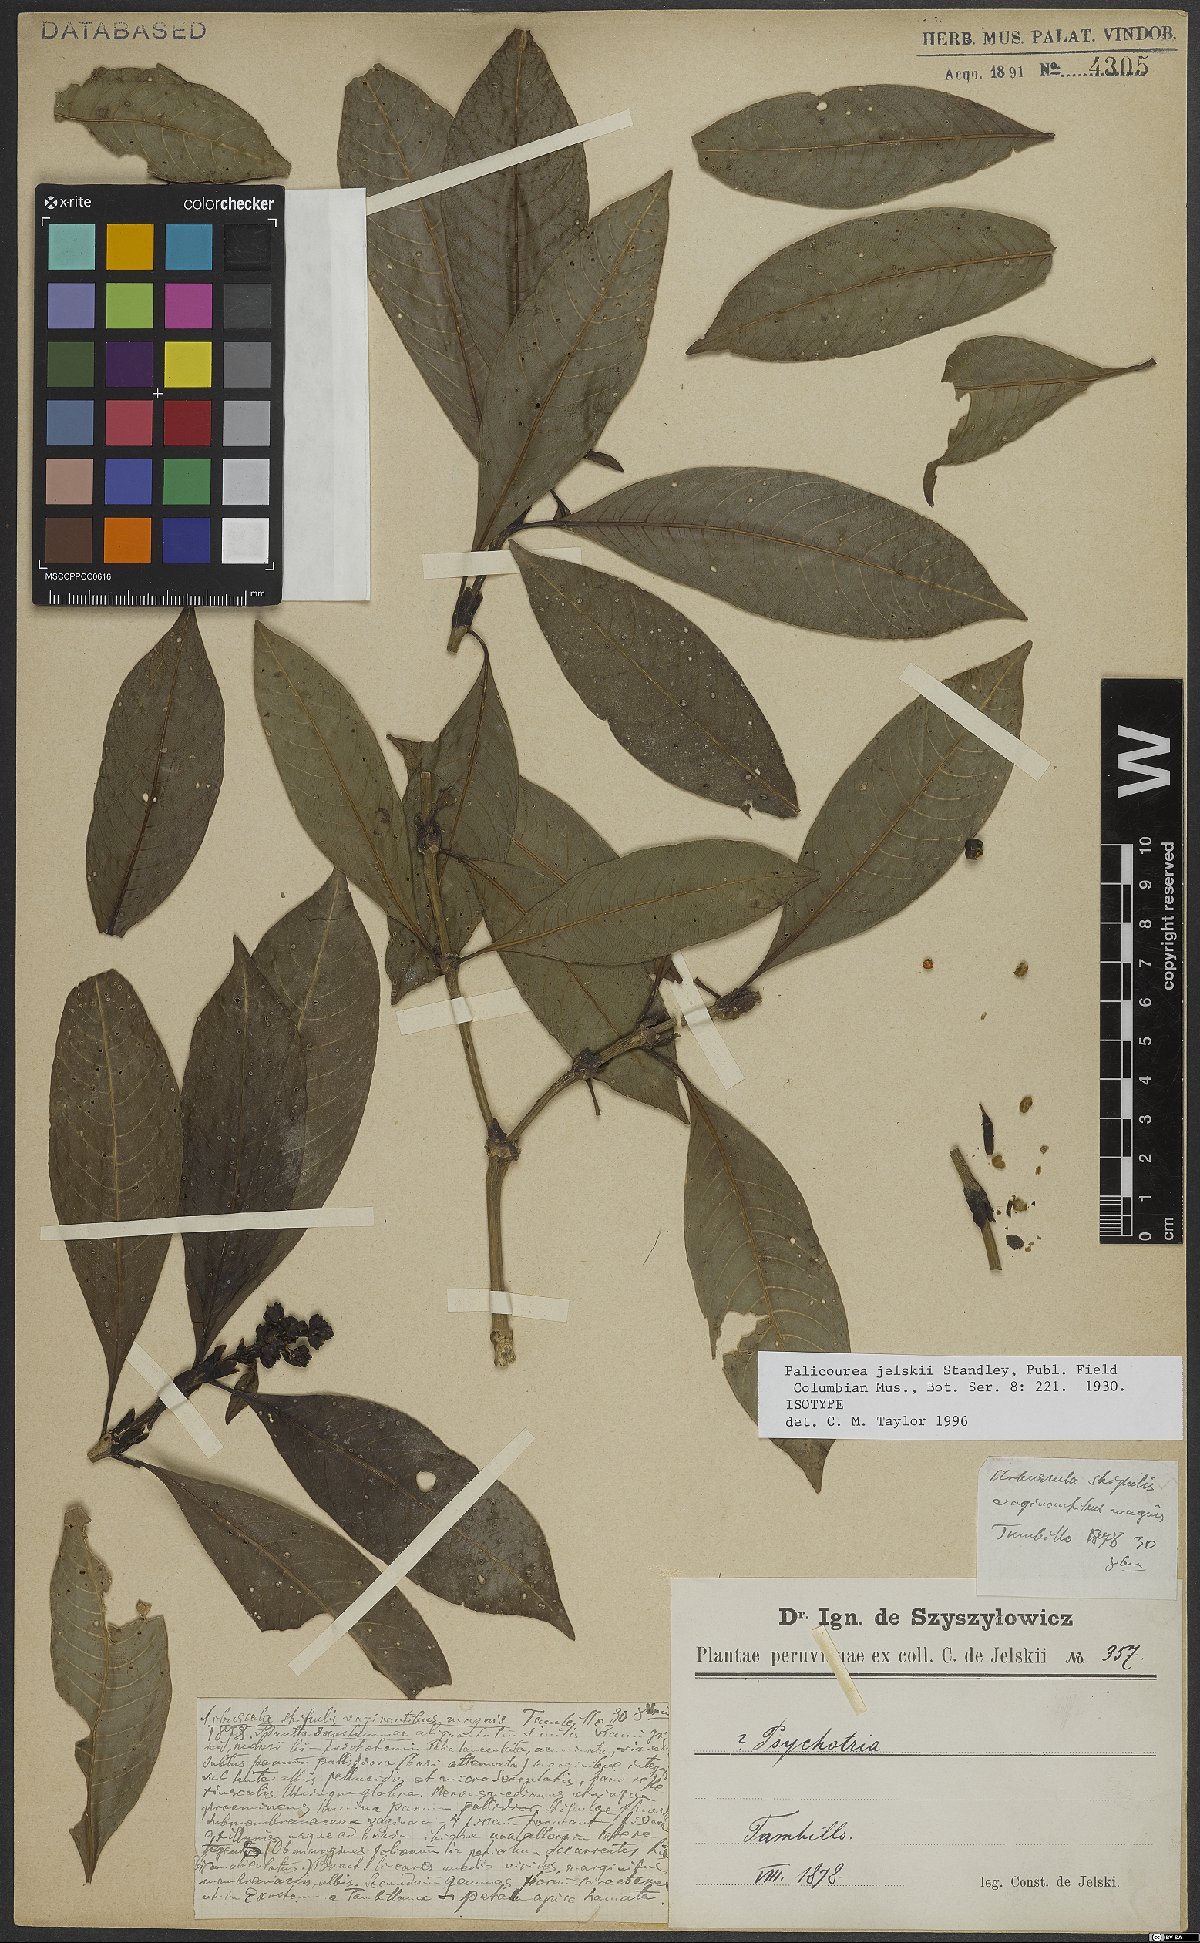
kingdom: Plantae
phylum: Tracheophyta
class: Magnoliopsida
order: Gentianales
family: Rubiaceae
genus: Palicourea
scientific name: Palicourea jelskii
